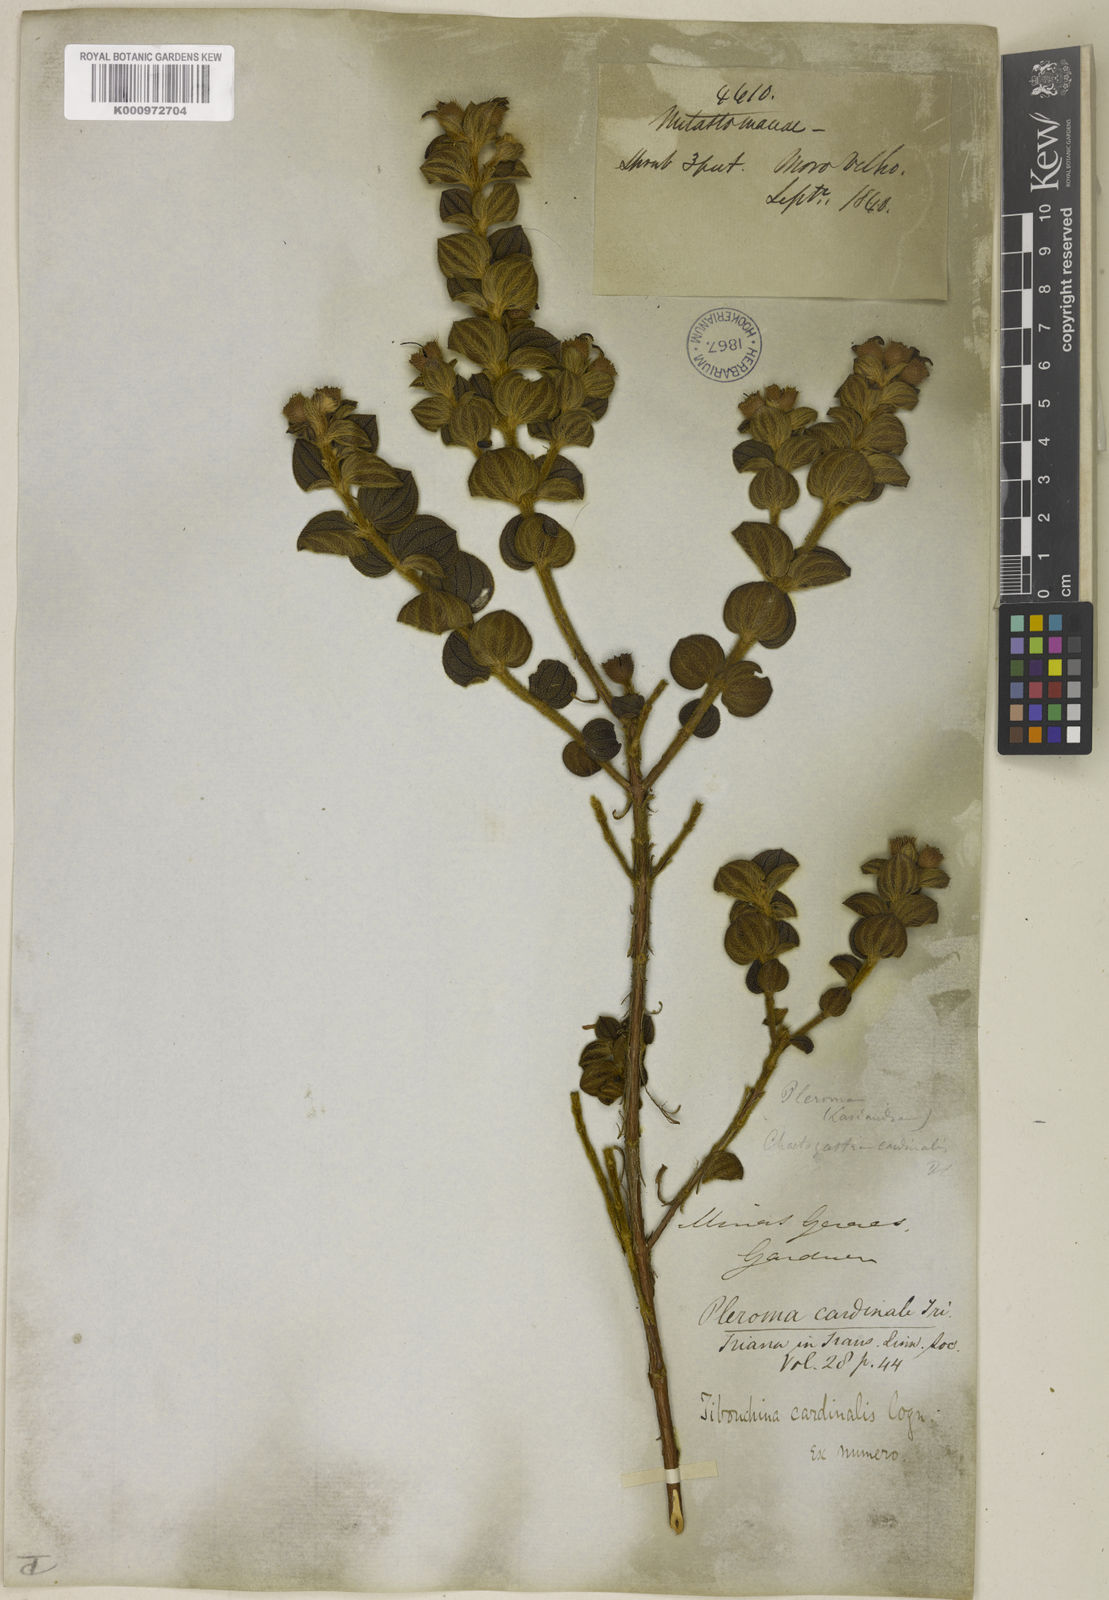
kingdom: Plantae
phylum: Tracheophyta
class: Magnoliopsida
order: Myrtales
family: Melastomataceae
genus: Chaetogastra
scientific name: Chaetogastra cardinalis
